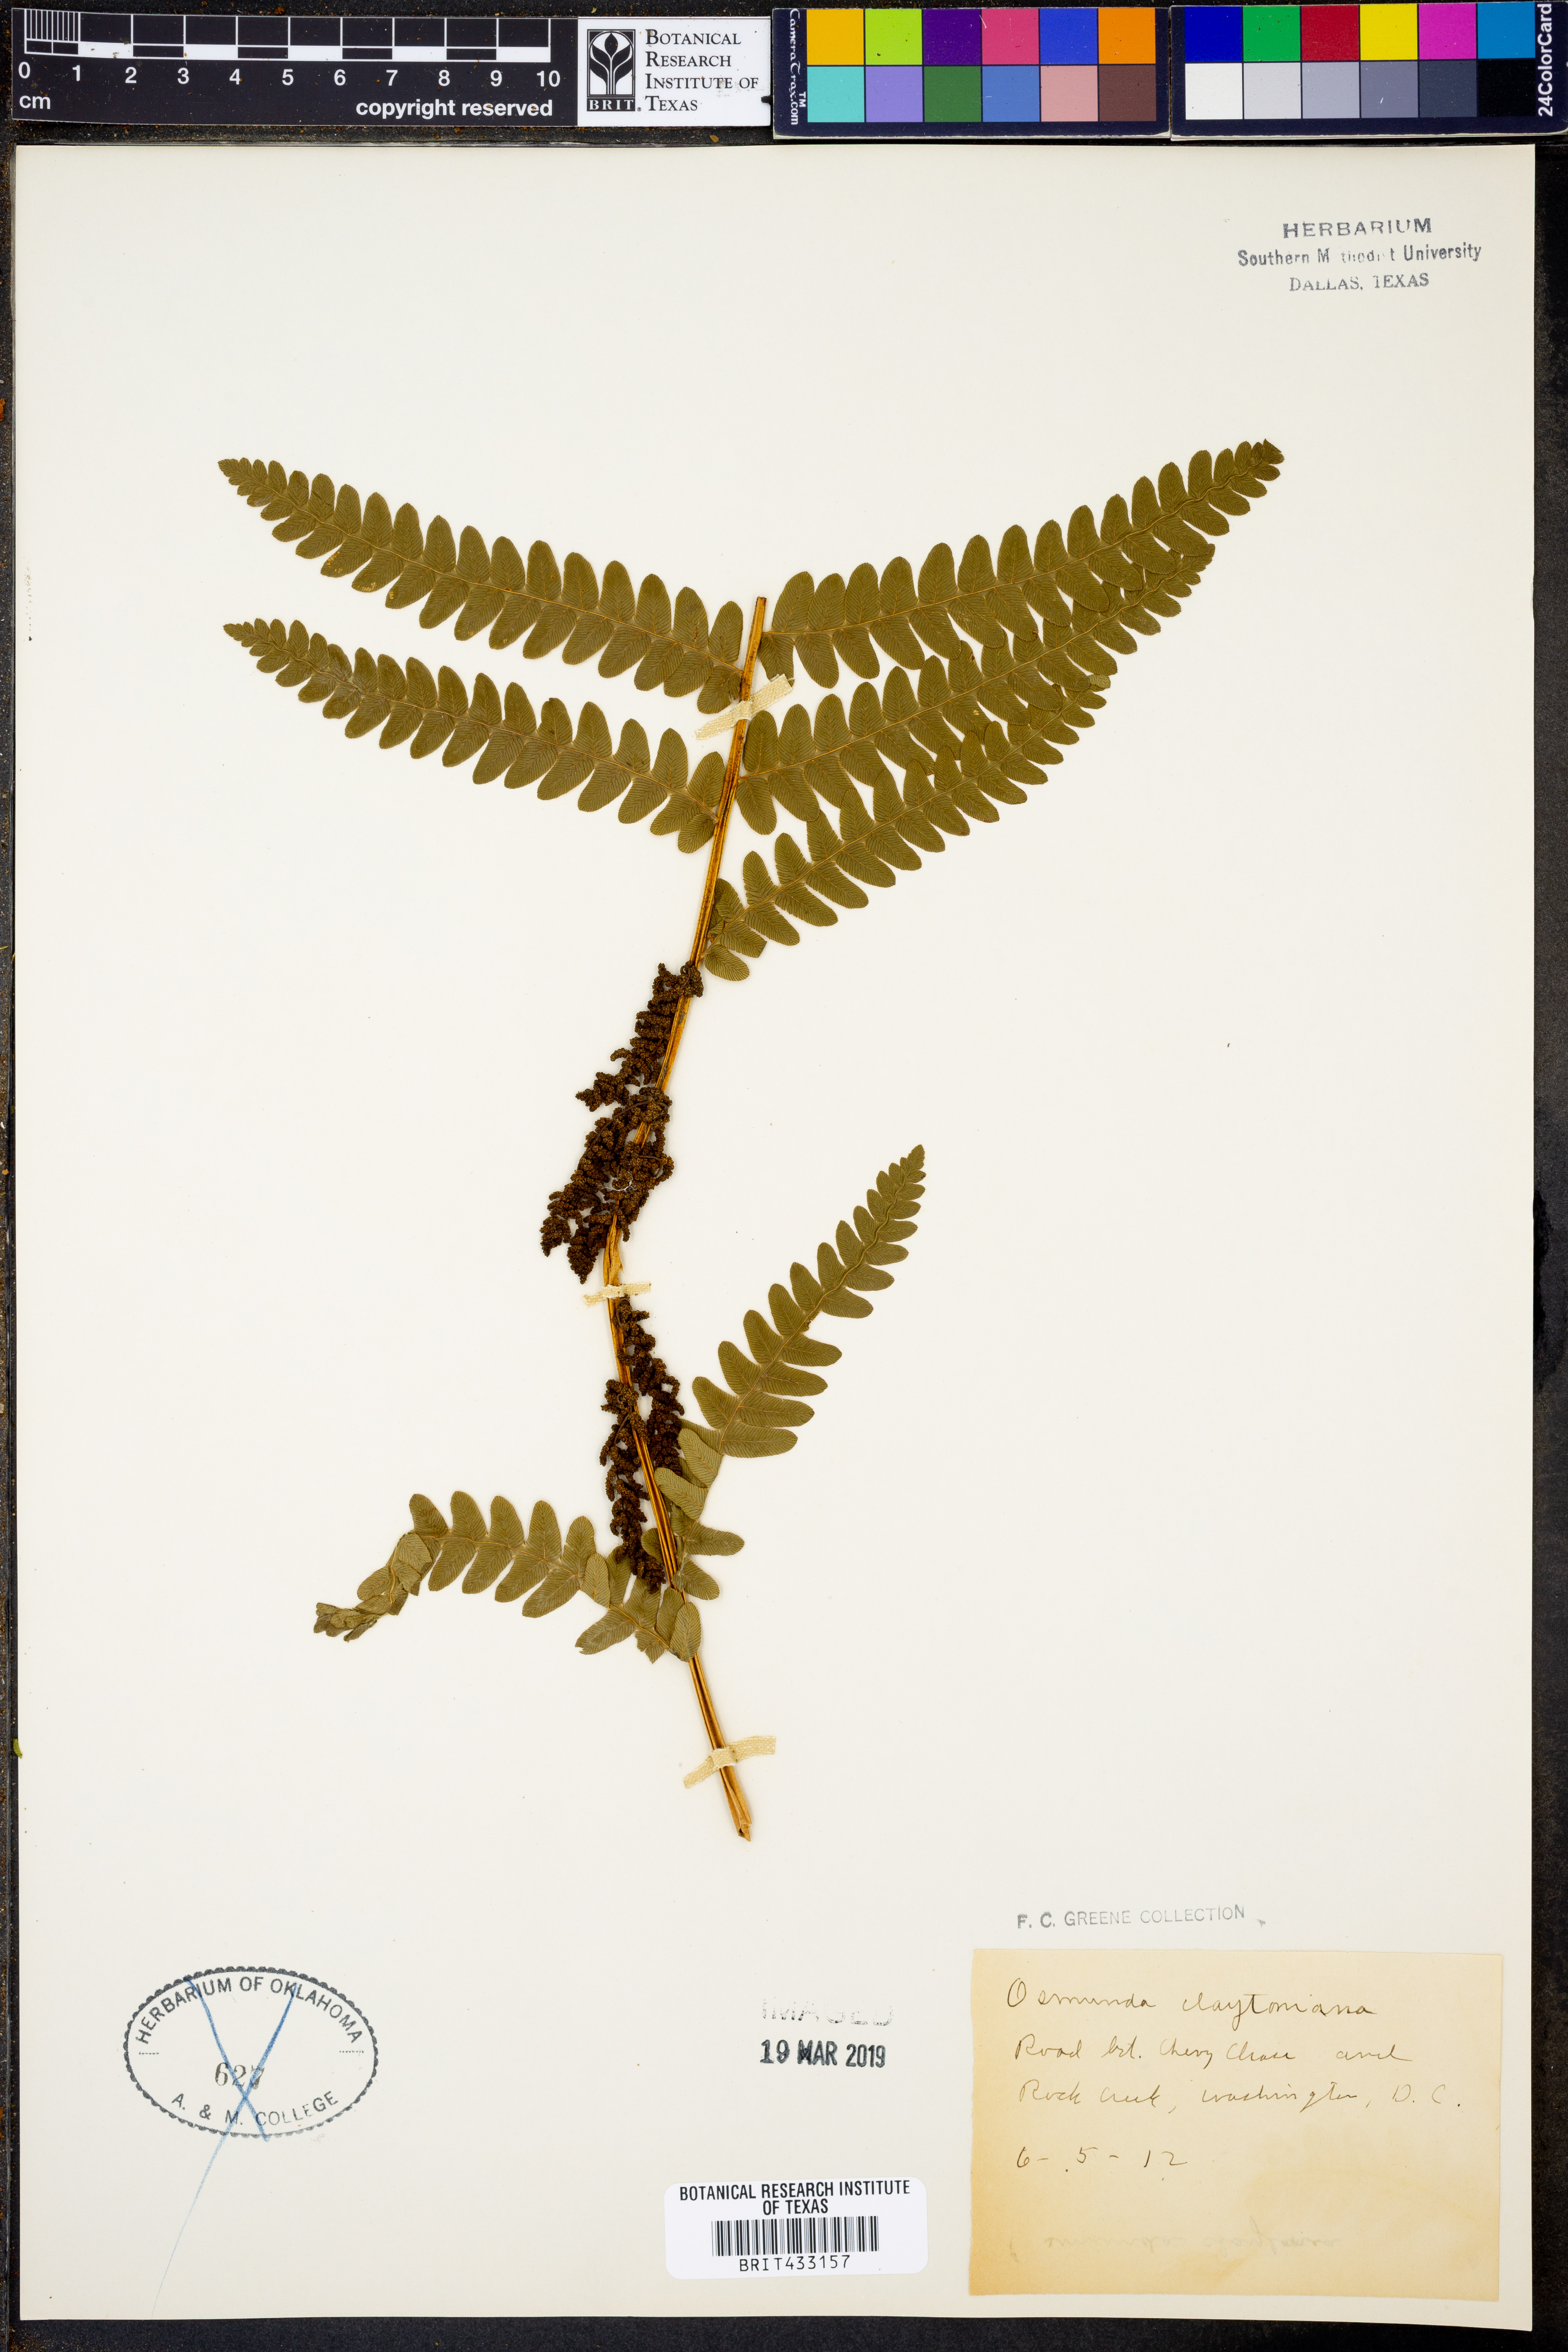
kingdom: Plantae
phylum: Tracheophyta
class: Polypodiopsida
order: Osmundales
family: Osmundaceae
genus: Claytosmunda
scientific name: Claytosmunda claytoniana
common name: Clayton's fern
